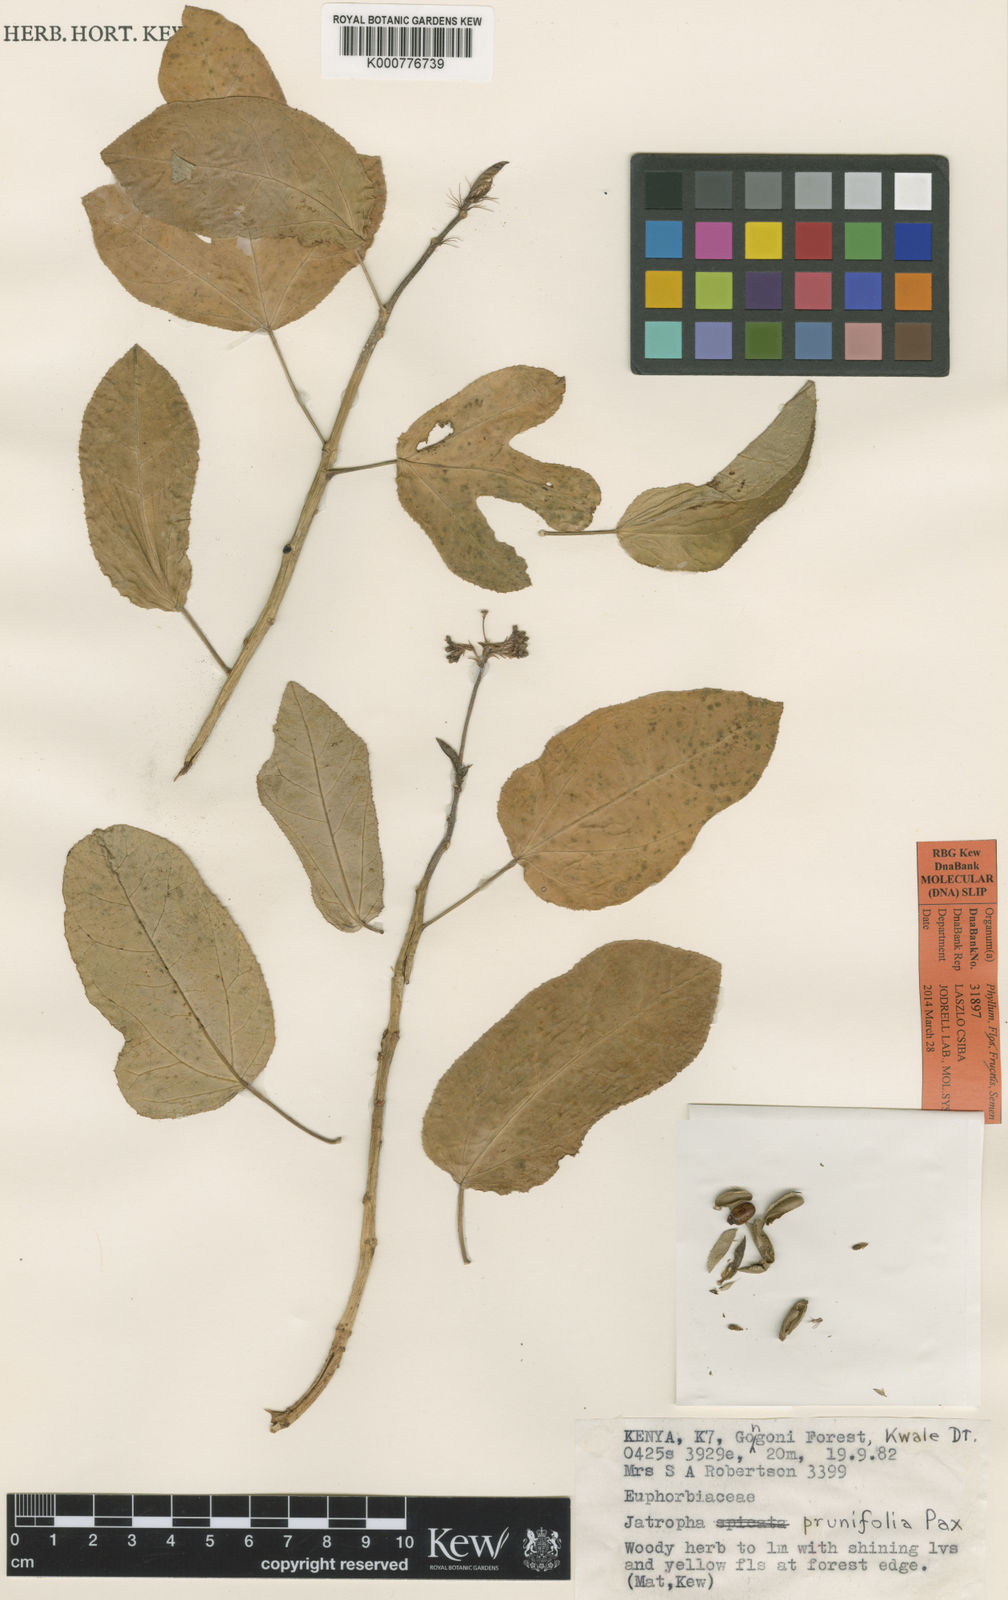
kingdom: Plantae
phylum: Tracheophyta
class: Magnoliopsida
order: Malpighiales
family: Euphorbiaceae
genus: Jatropha
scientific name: Jatropha
